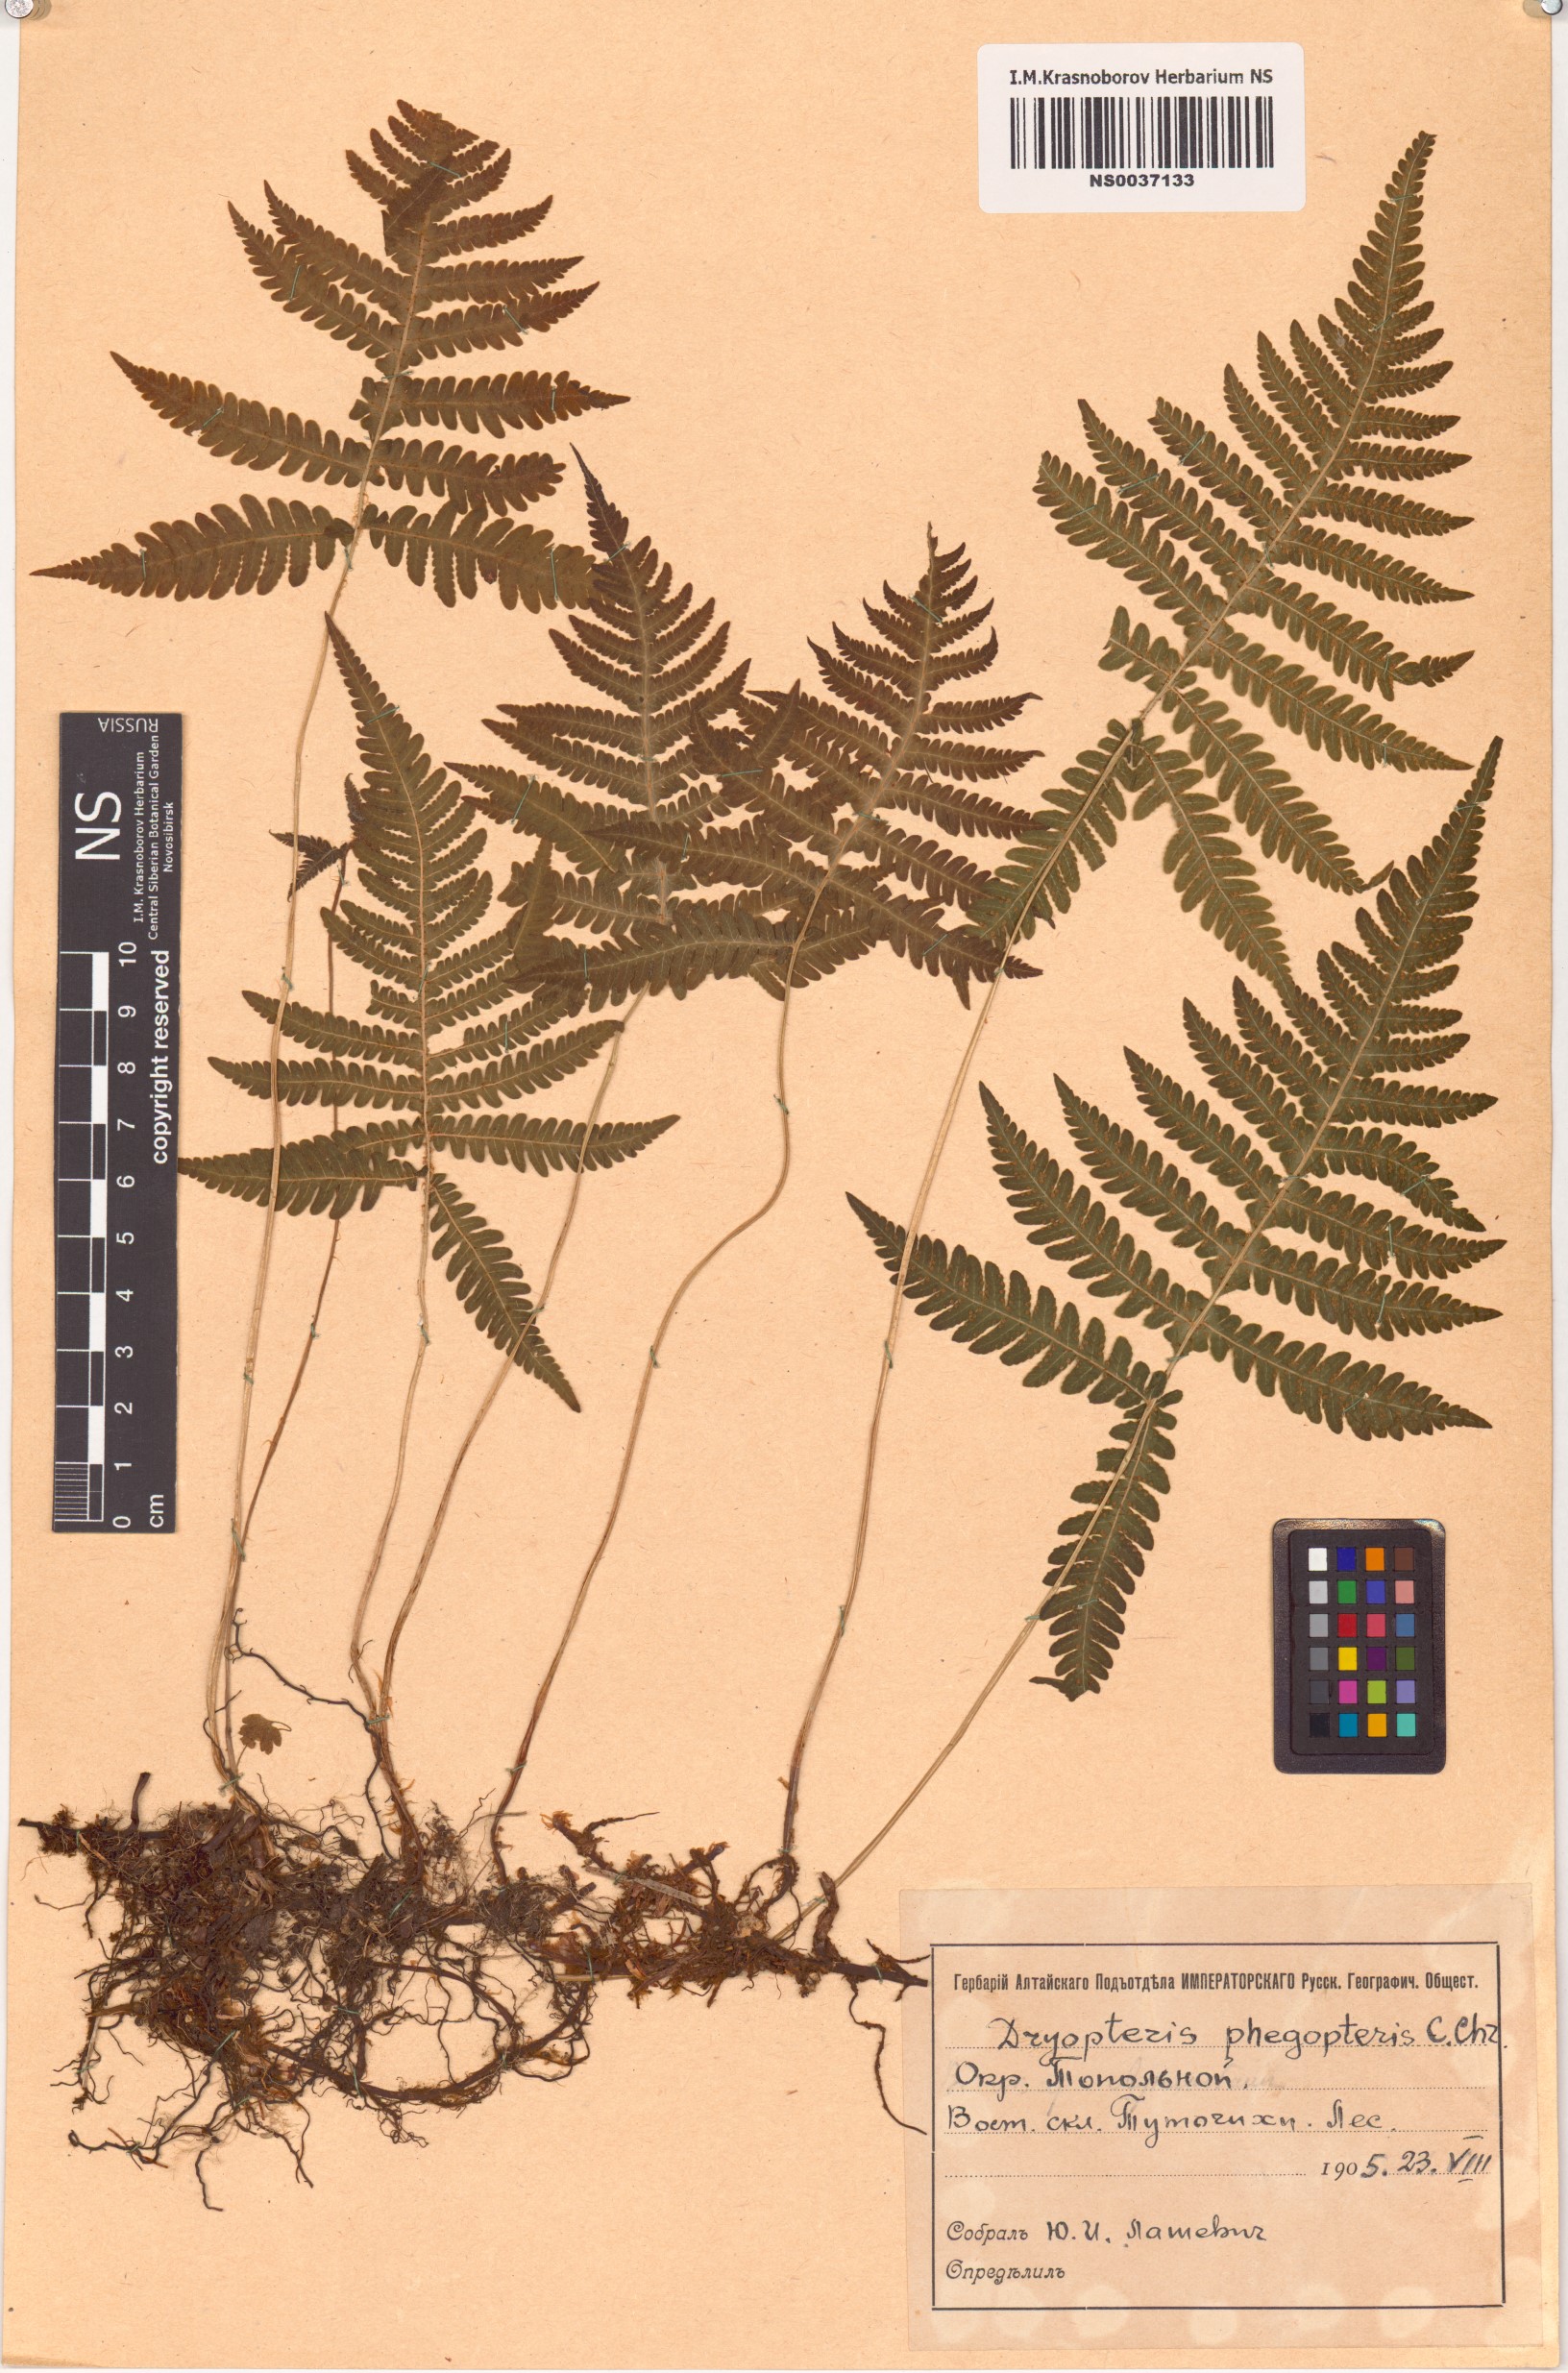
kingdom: Plantae
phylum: Tracheophyta
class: Polypodiopsida
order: Polypodiales
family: Thelypteridaceae
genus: Phegopteris
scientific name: Phegopteris connectilis
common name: Beech fern
